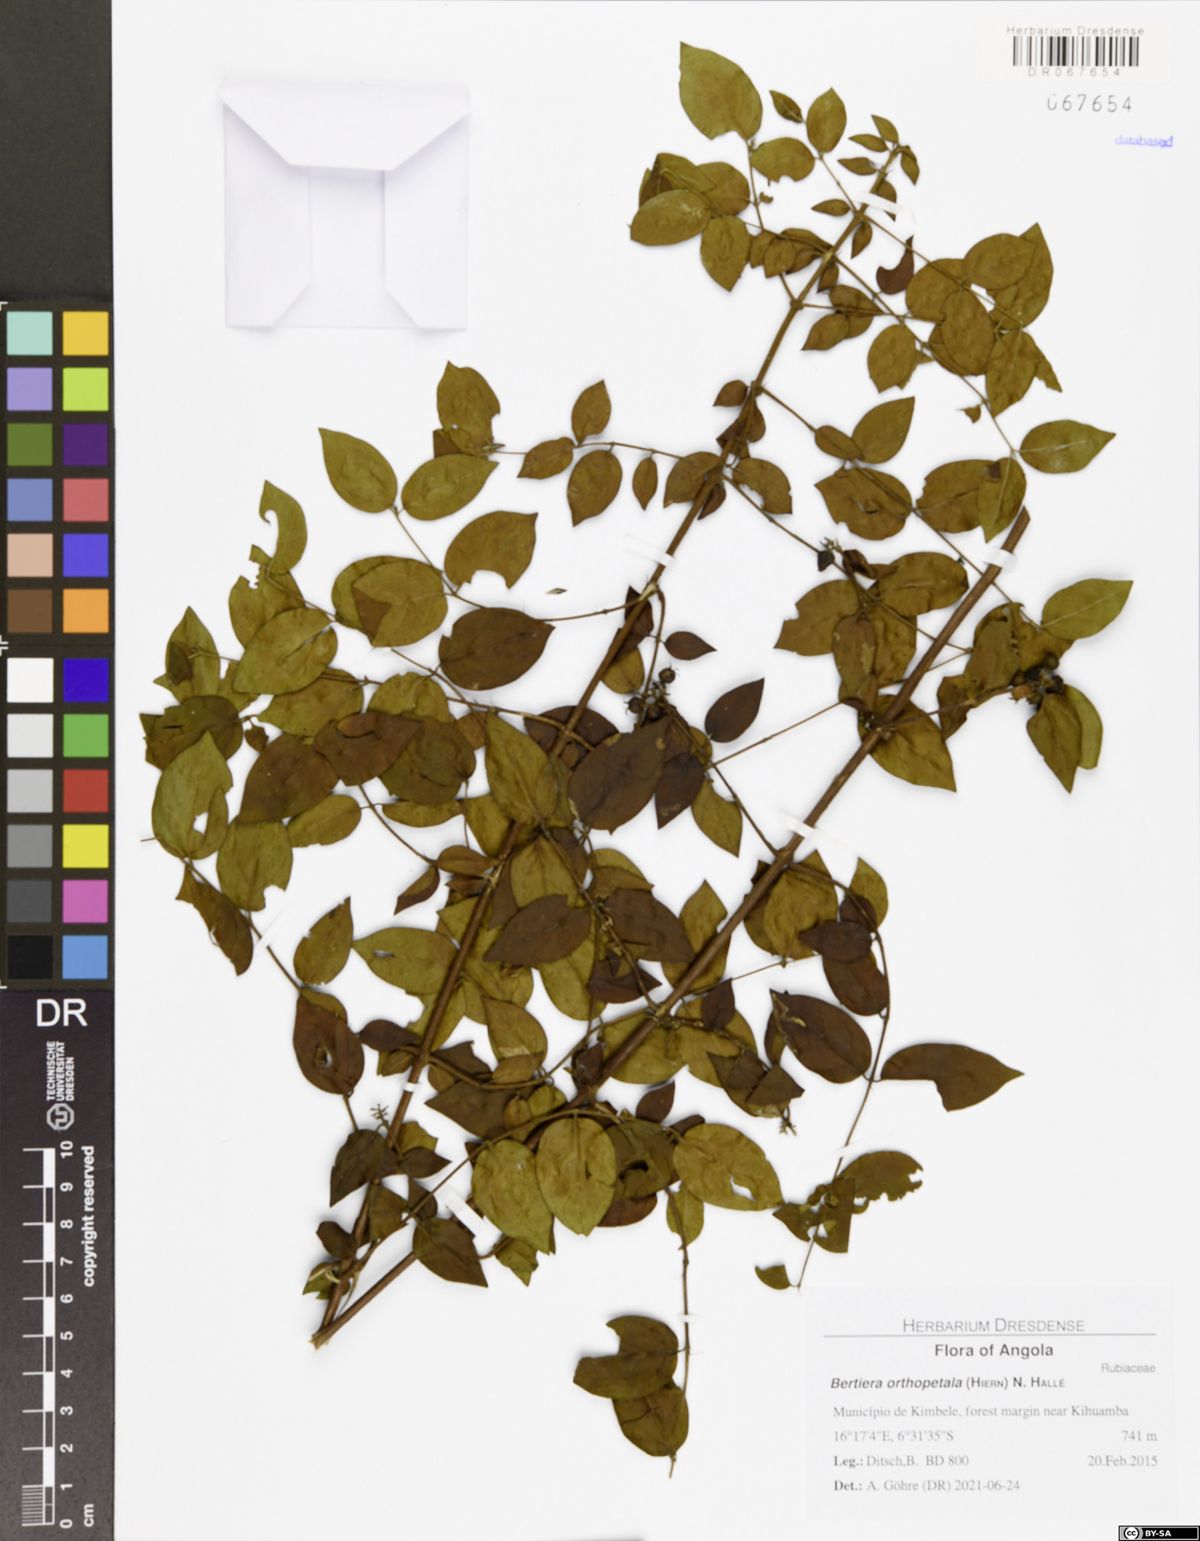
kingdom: Plantae
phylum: Tracheophyta
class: Magnoliopsida
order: Gentianales
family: Rubiaceae
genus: Bertiera
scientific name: Bertiera orthopetala
